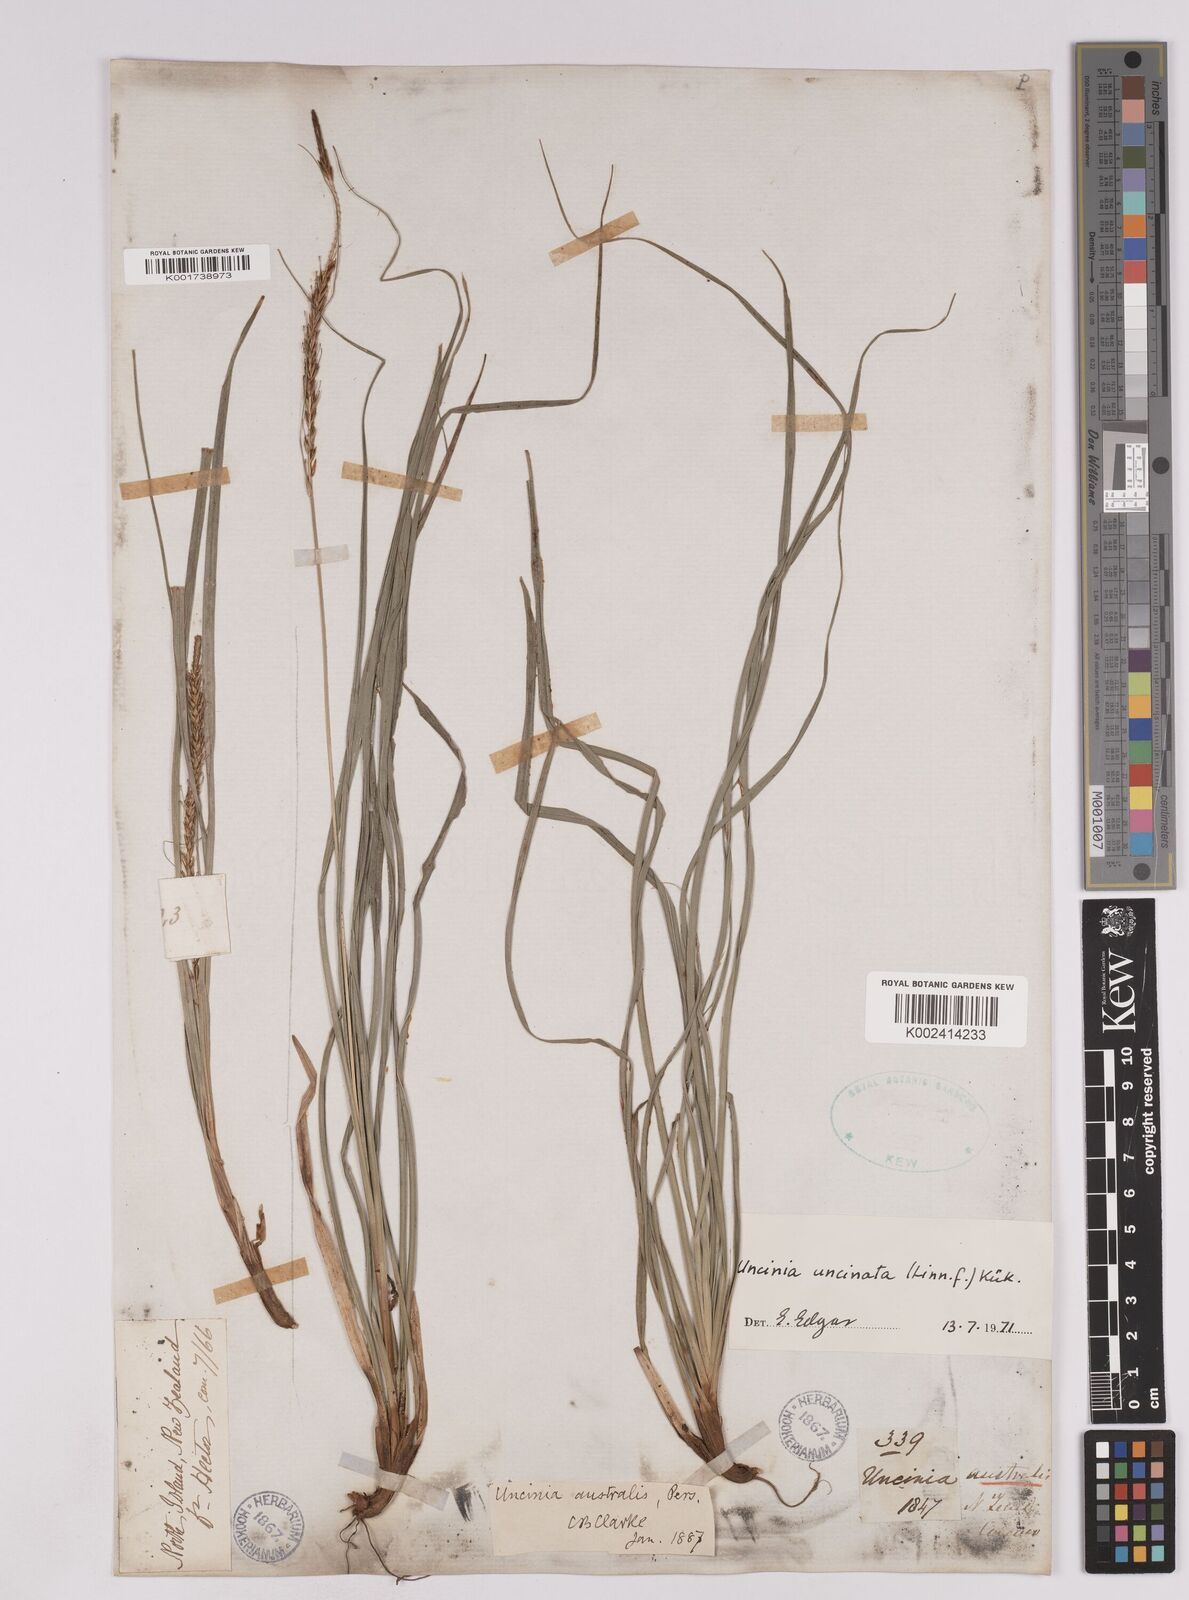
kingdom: Plantae
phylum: Tracheophyta
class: Liliopsida
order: Poales
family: Cyperaceae
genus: Carex
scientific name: Carex uncinata
